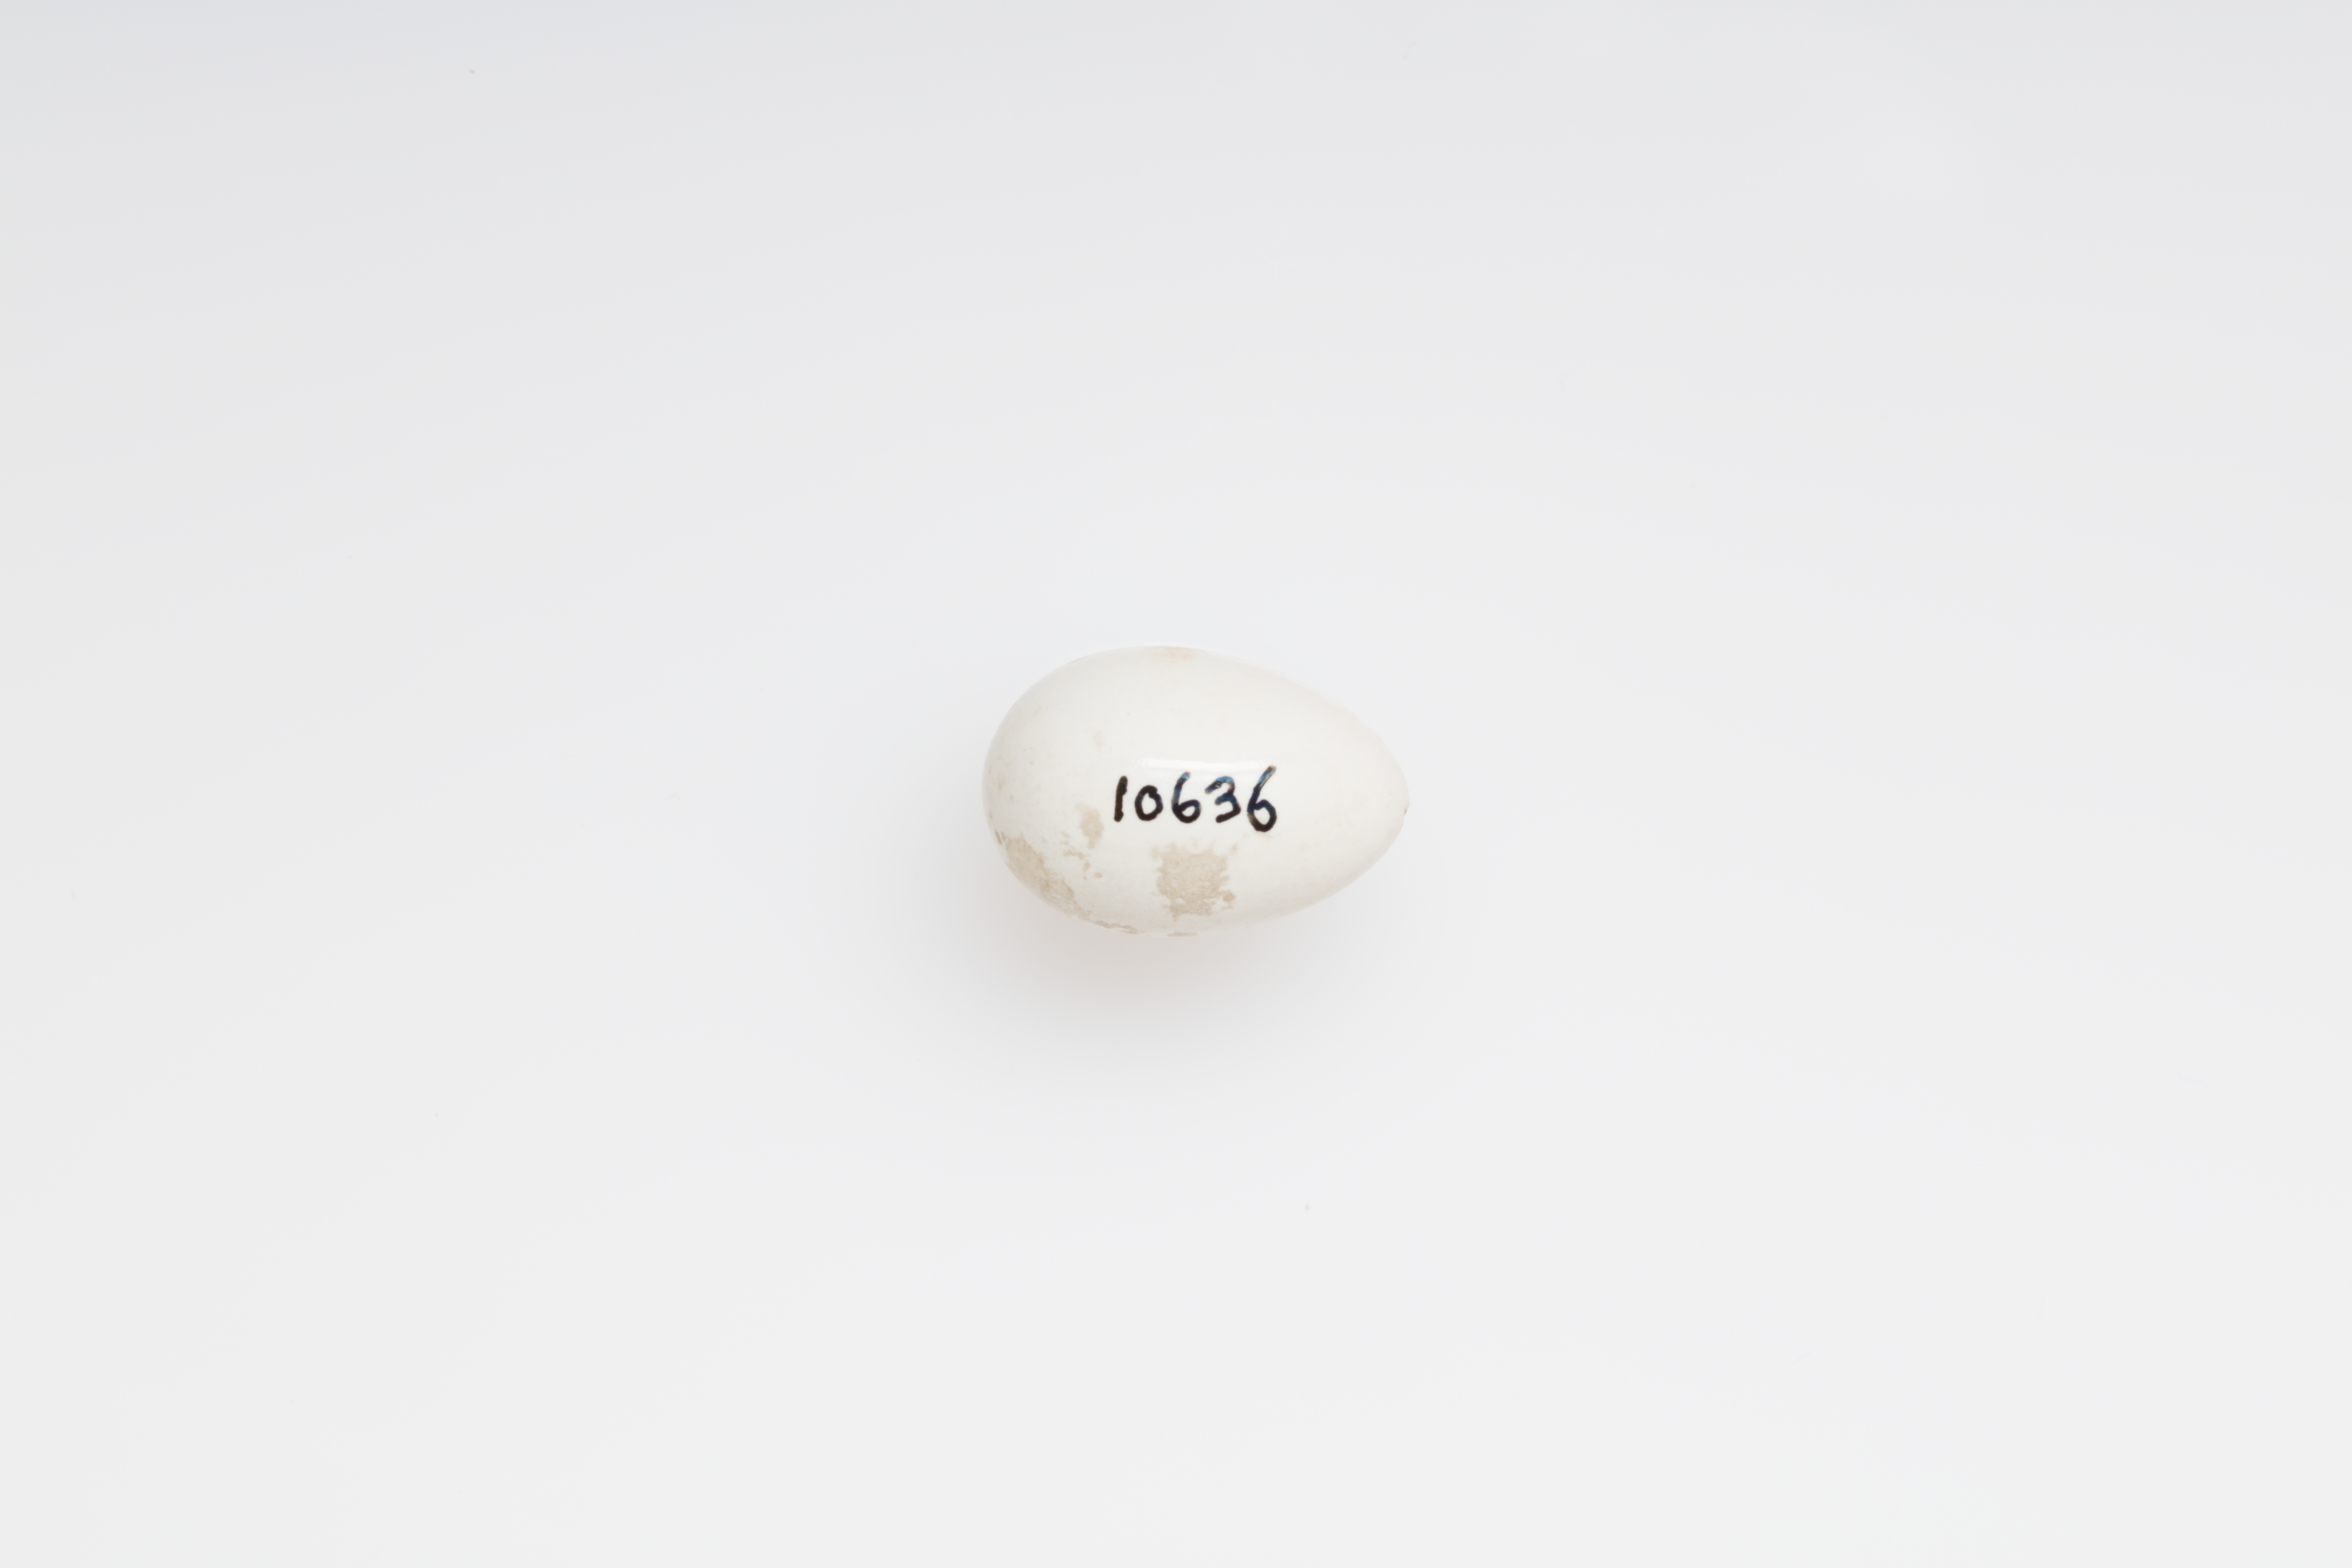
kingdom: Animalia
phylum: Chordata
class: Aves
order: Passeriformes
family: Hirundinidae
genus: Riparia
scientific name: Riparia riparia
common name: Sand martin
